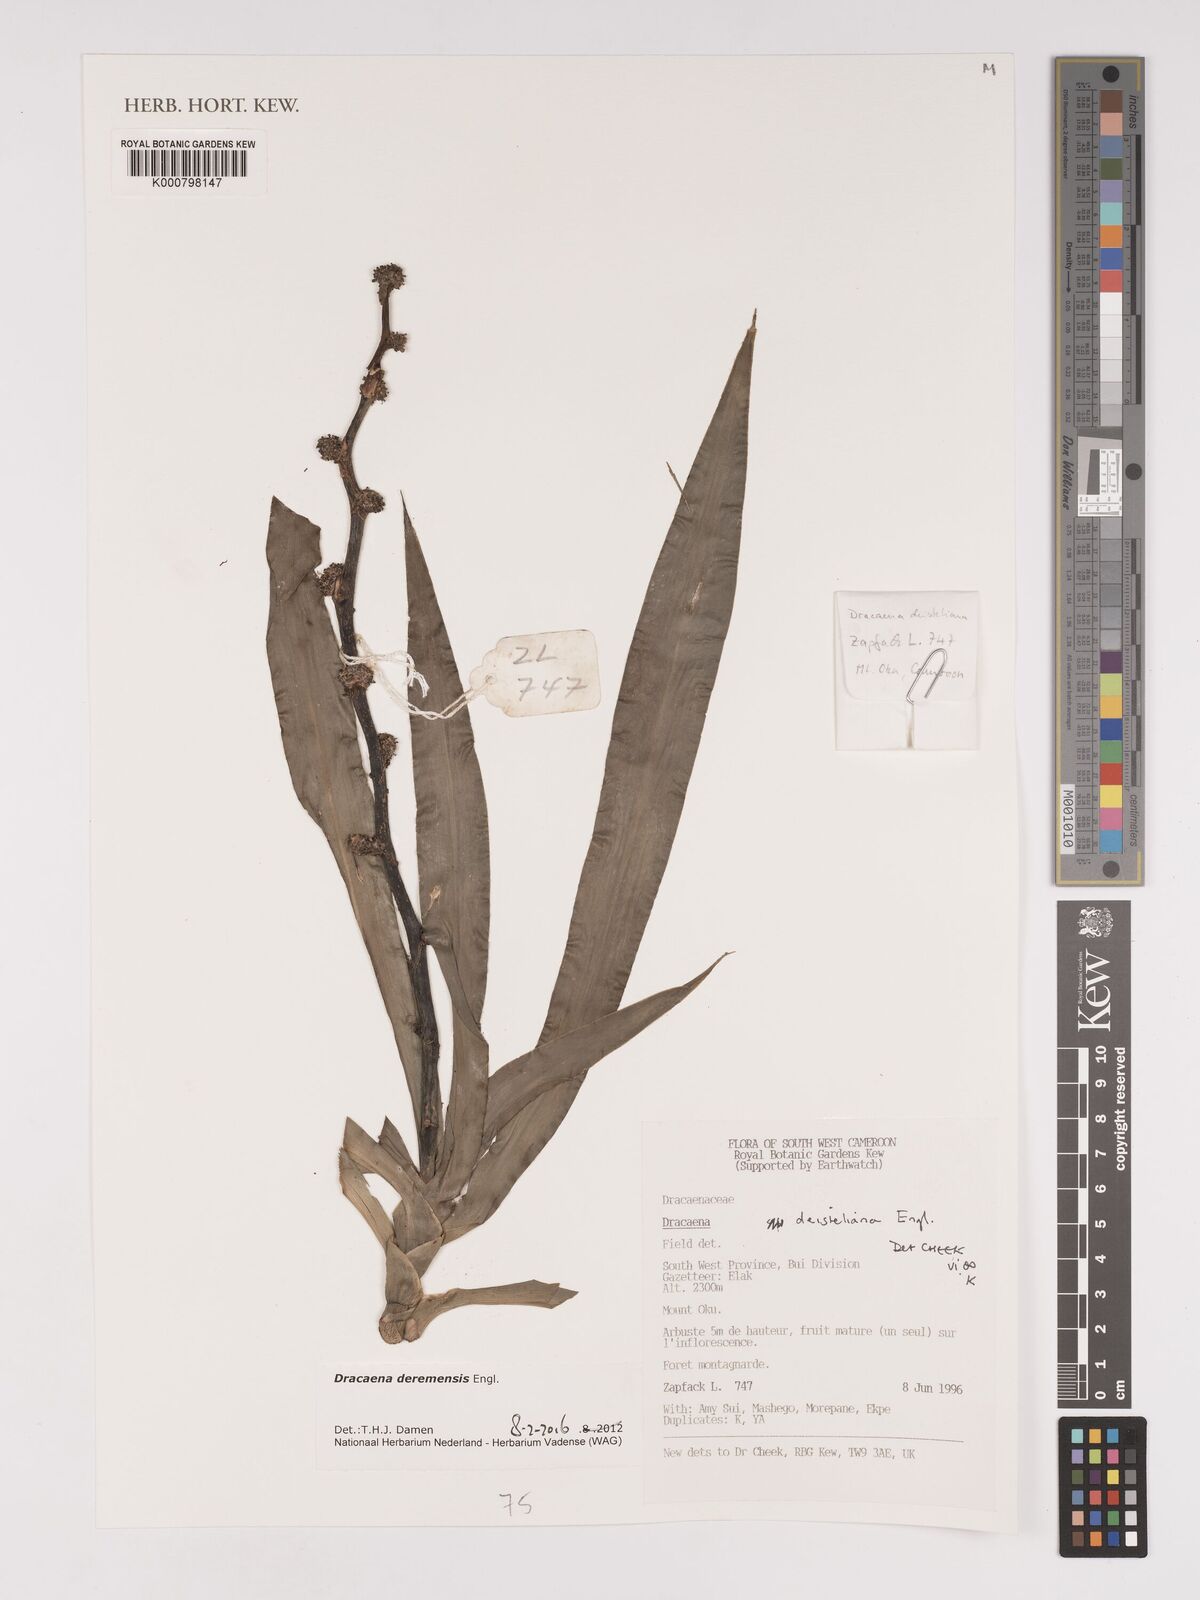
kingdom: Plantae
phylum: Tracheophyta
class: Liliopsida
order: Asparagales
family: Asparagaceae
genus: Dracaena
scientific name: Dracaena fragrans
